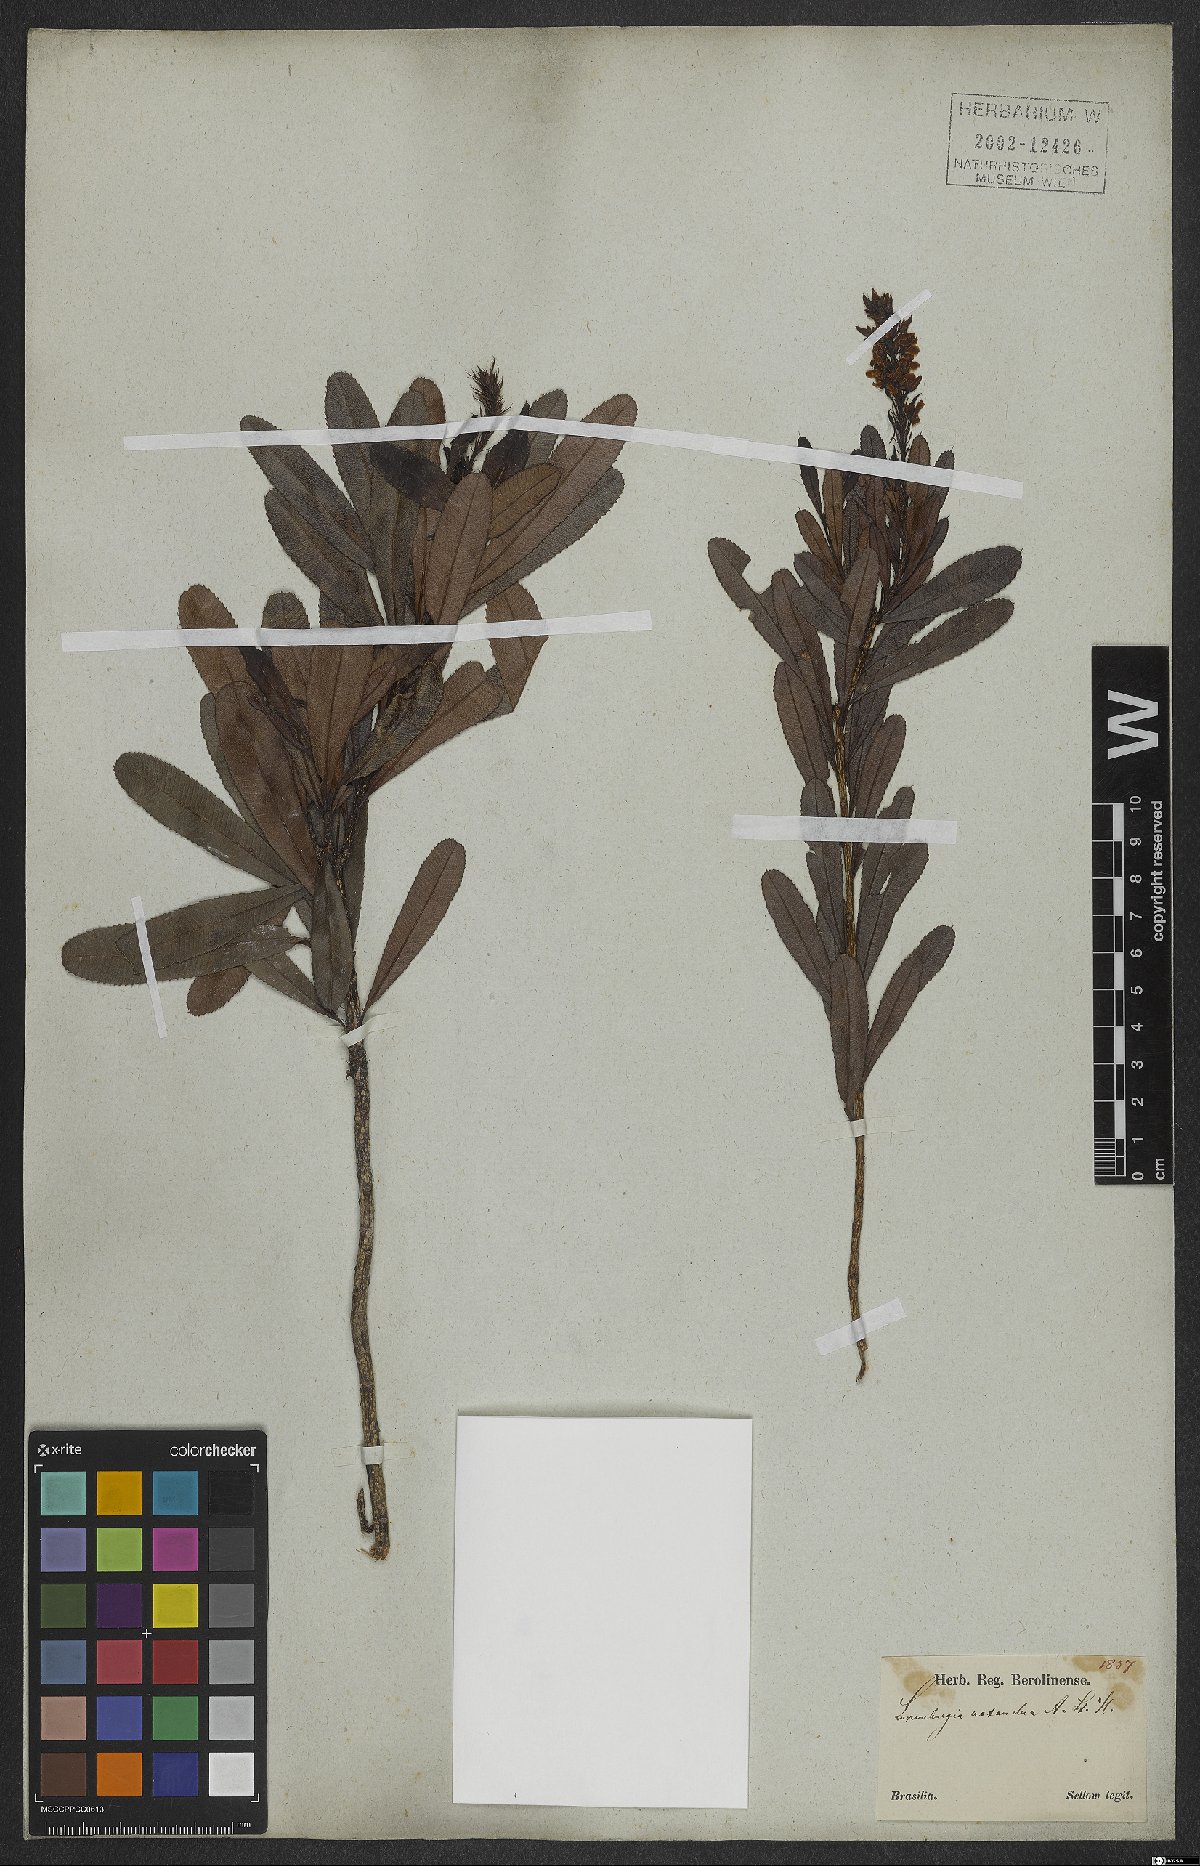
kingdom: Plantae
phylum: Tracheophyta
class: Magnoliopsida
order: Malpighiales
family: Ochnaceae
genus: Luxemburgia
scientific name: Luxemburgia octandra
